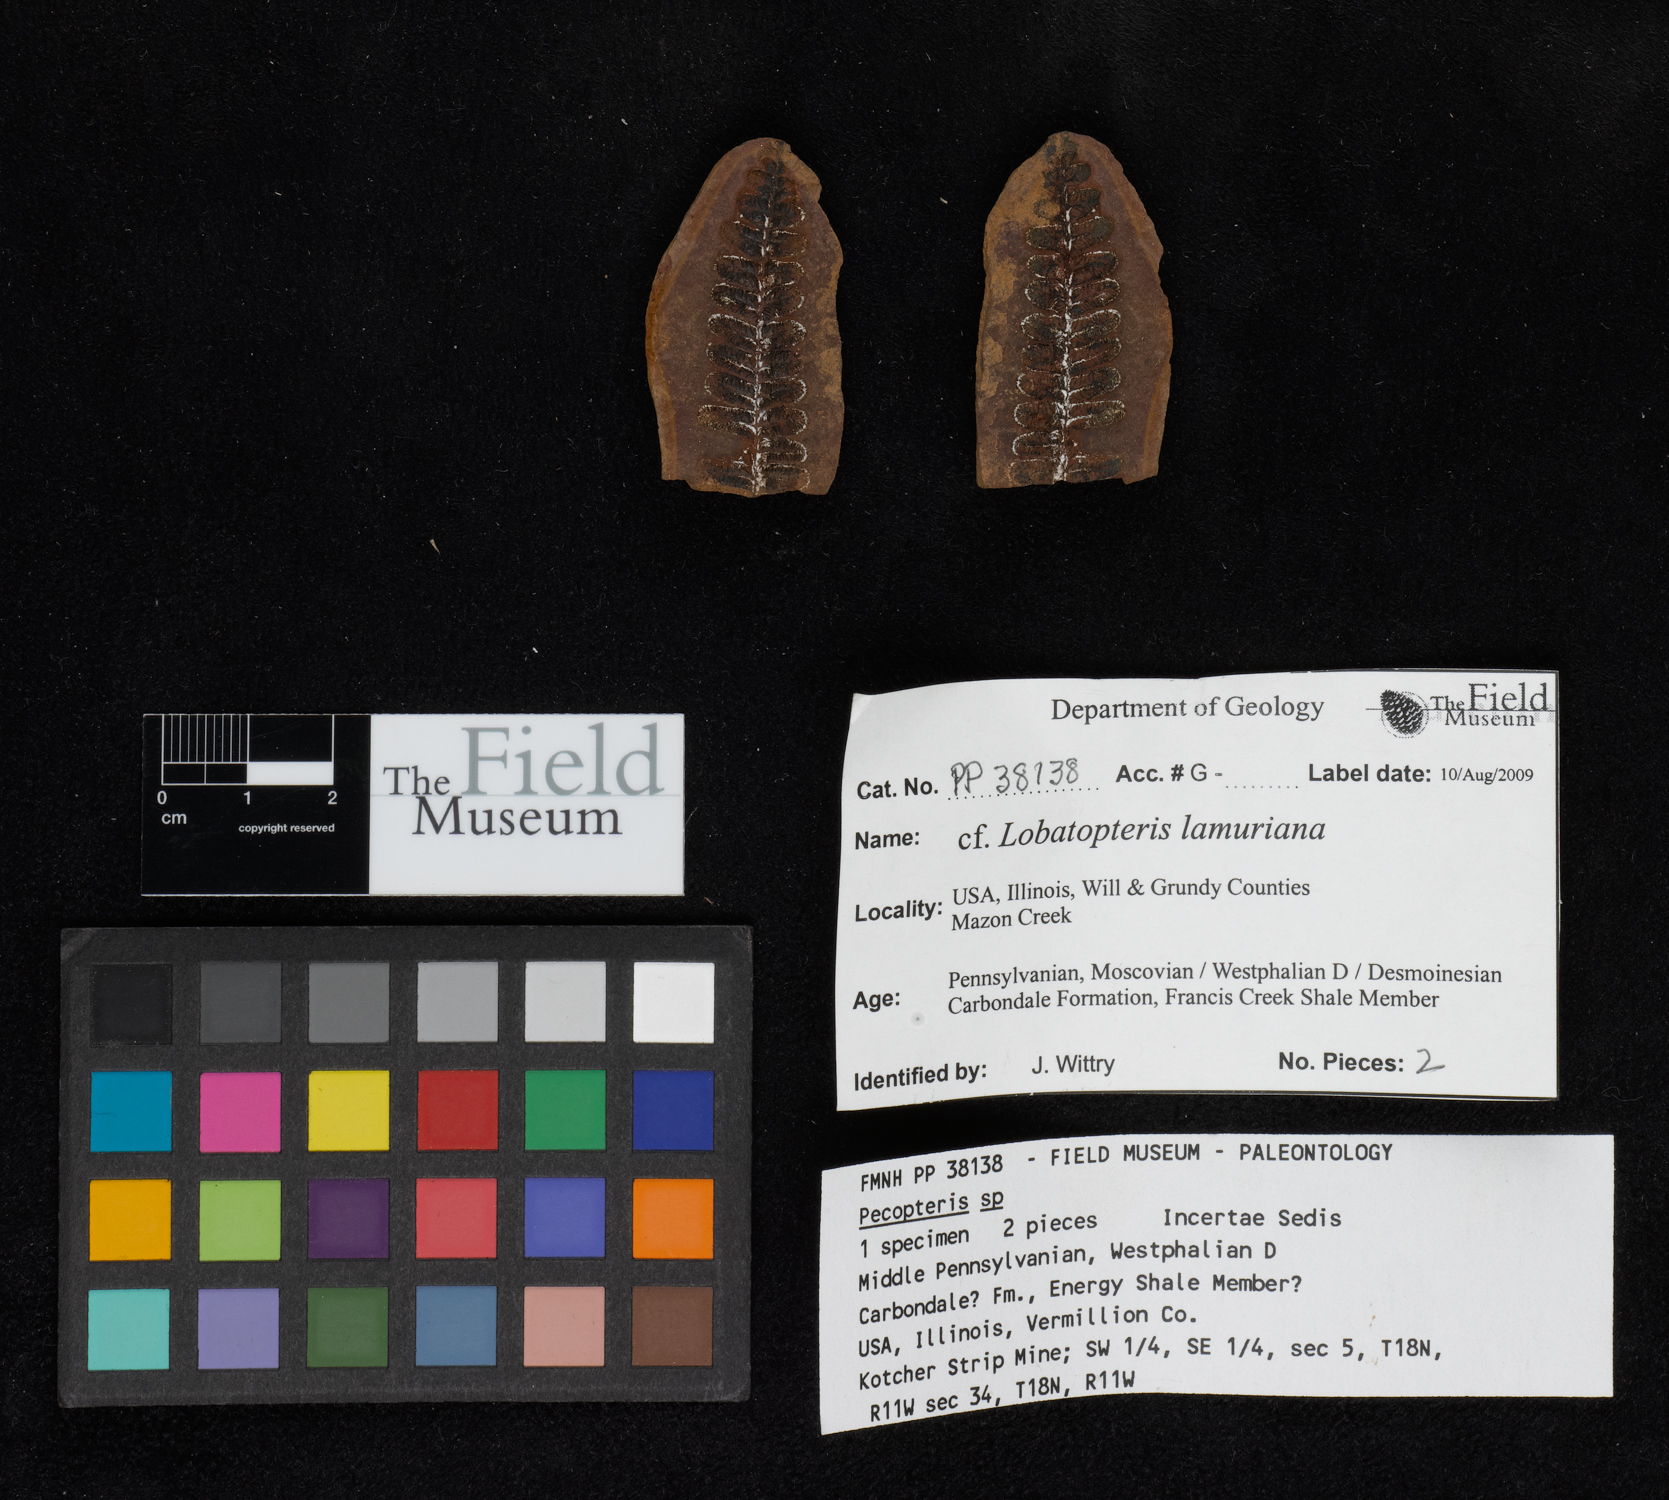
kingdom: Plantae
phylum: Tracheophyta
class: Polypodiopsida
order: Marattiales
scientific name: Marattiales
